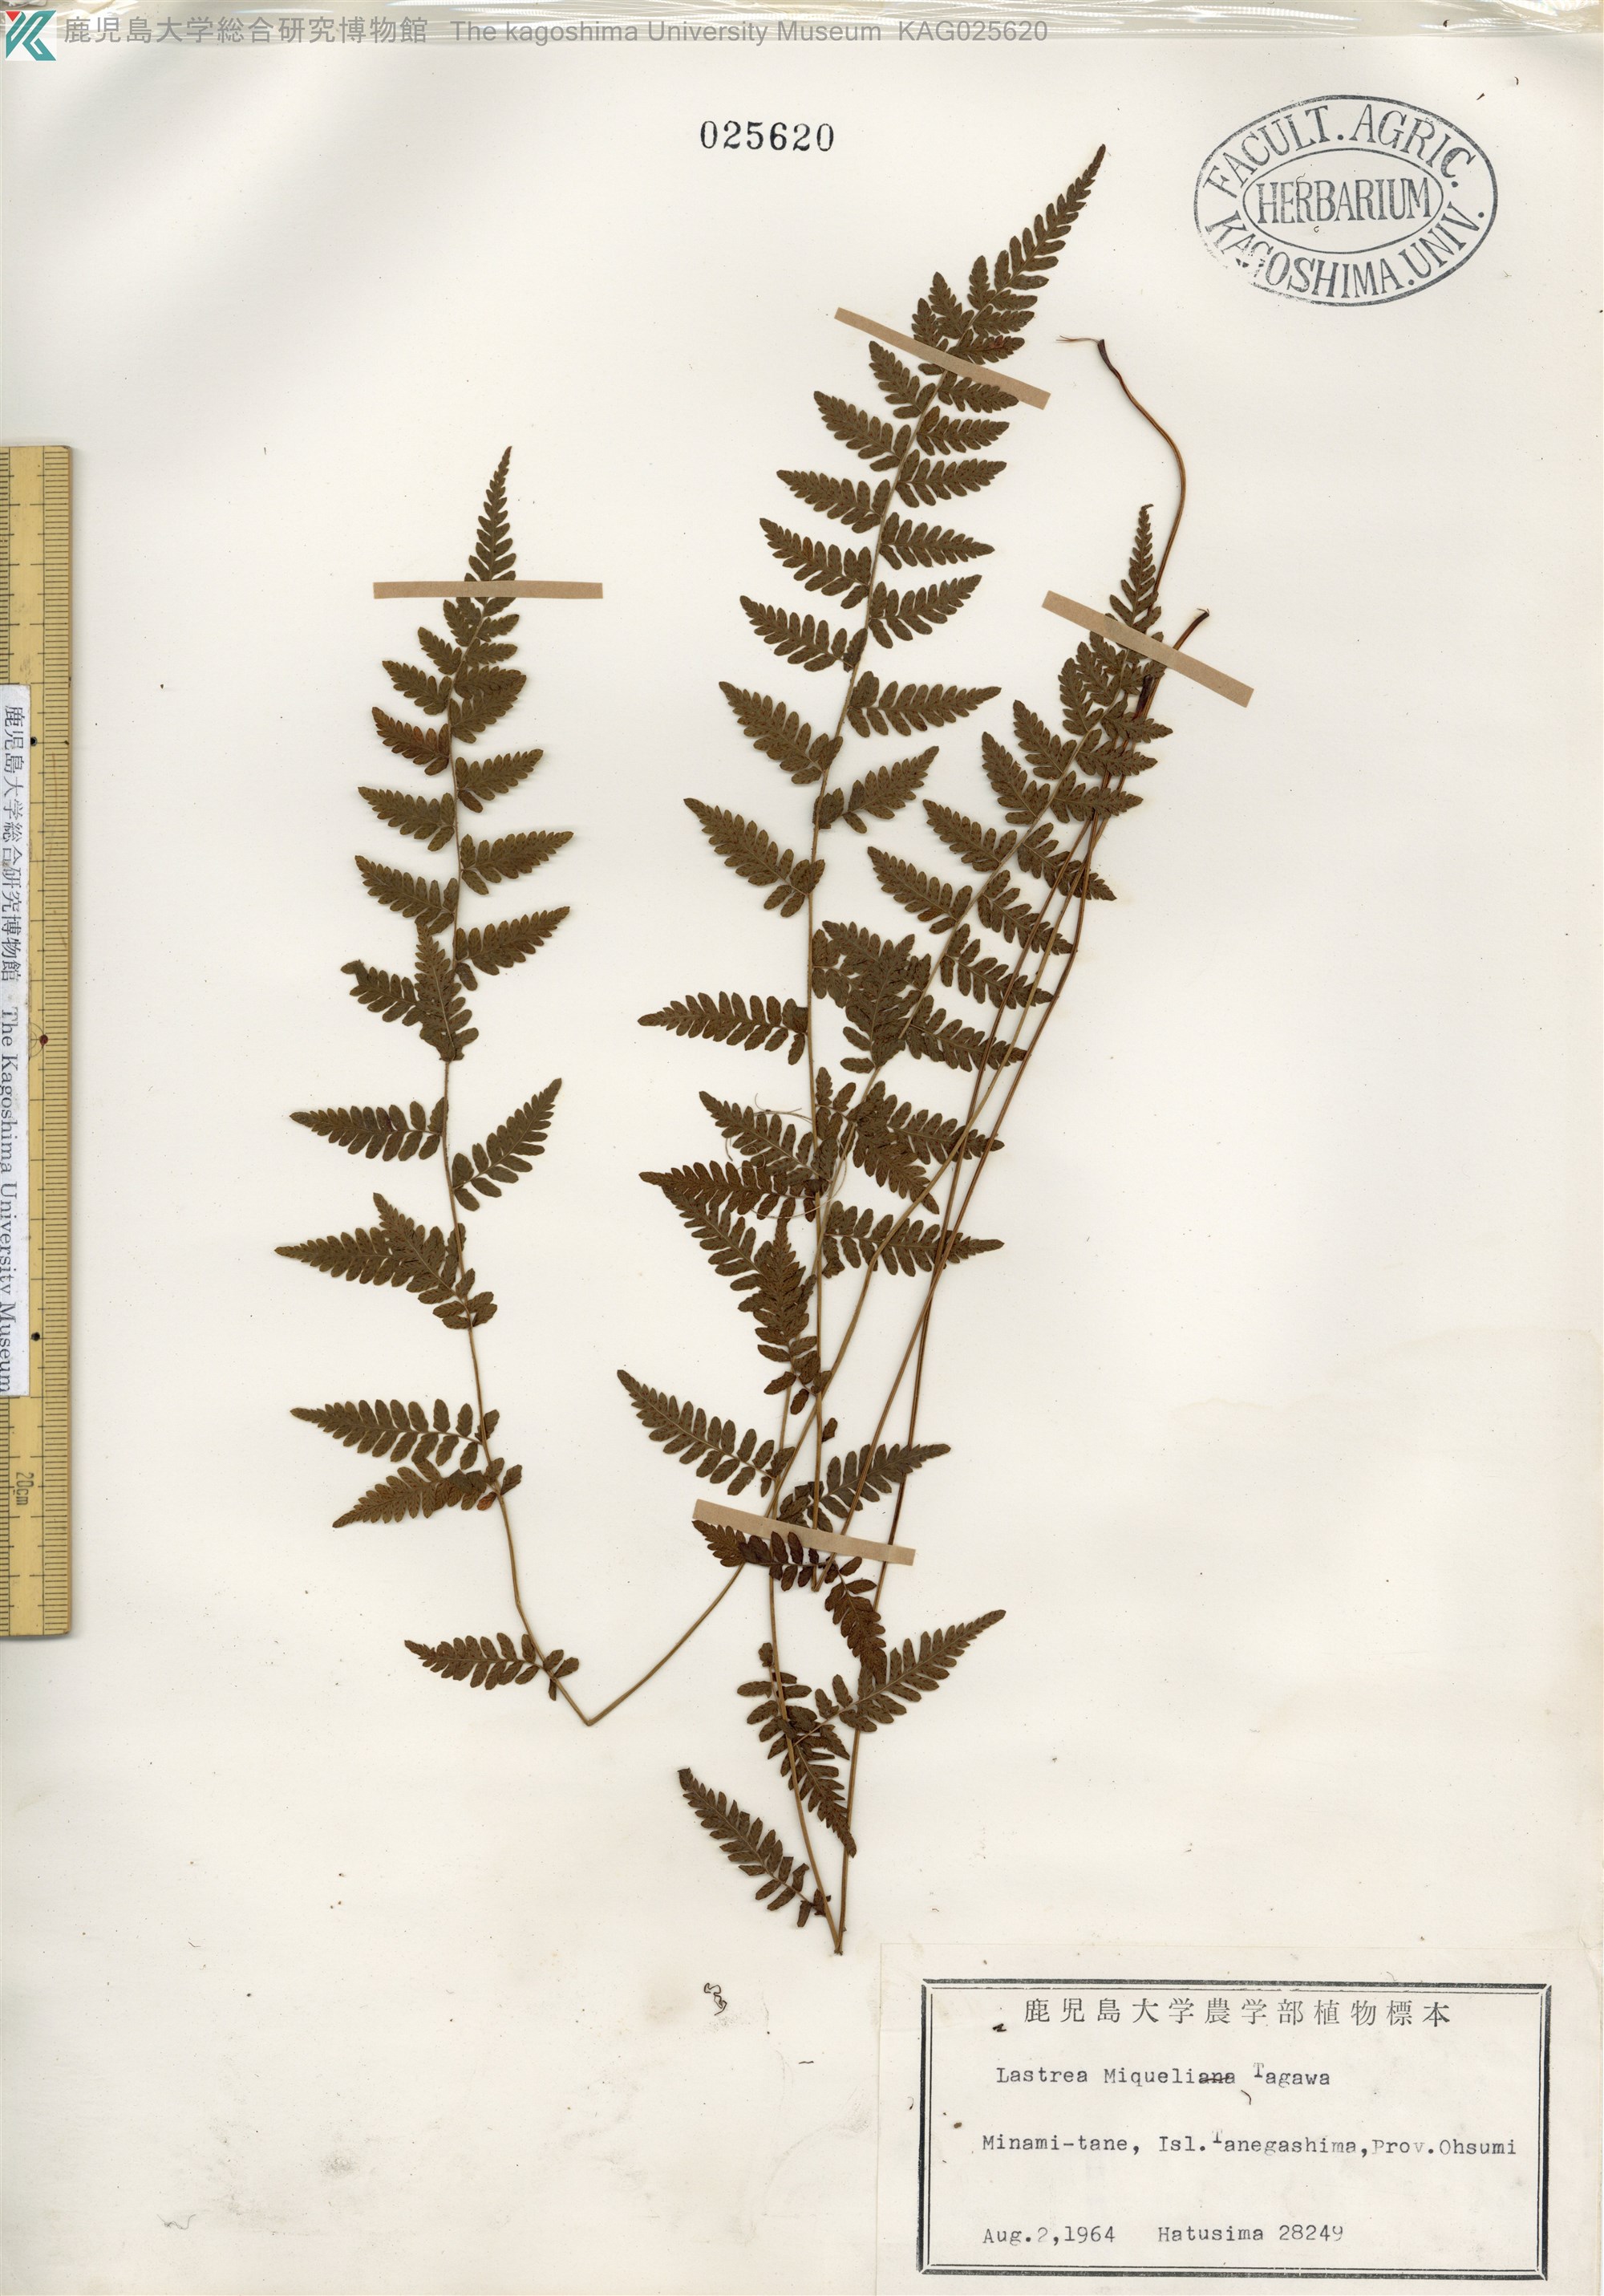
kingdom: Plantae
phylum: Tracheophyta
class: Polypodiopsida
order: Polypodiales
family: Thelypteridaceae
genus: Amauropelta
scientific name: Amauropelta angustifrons
